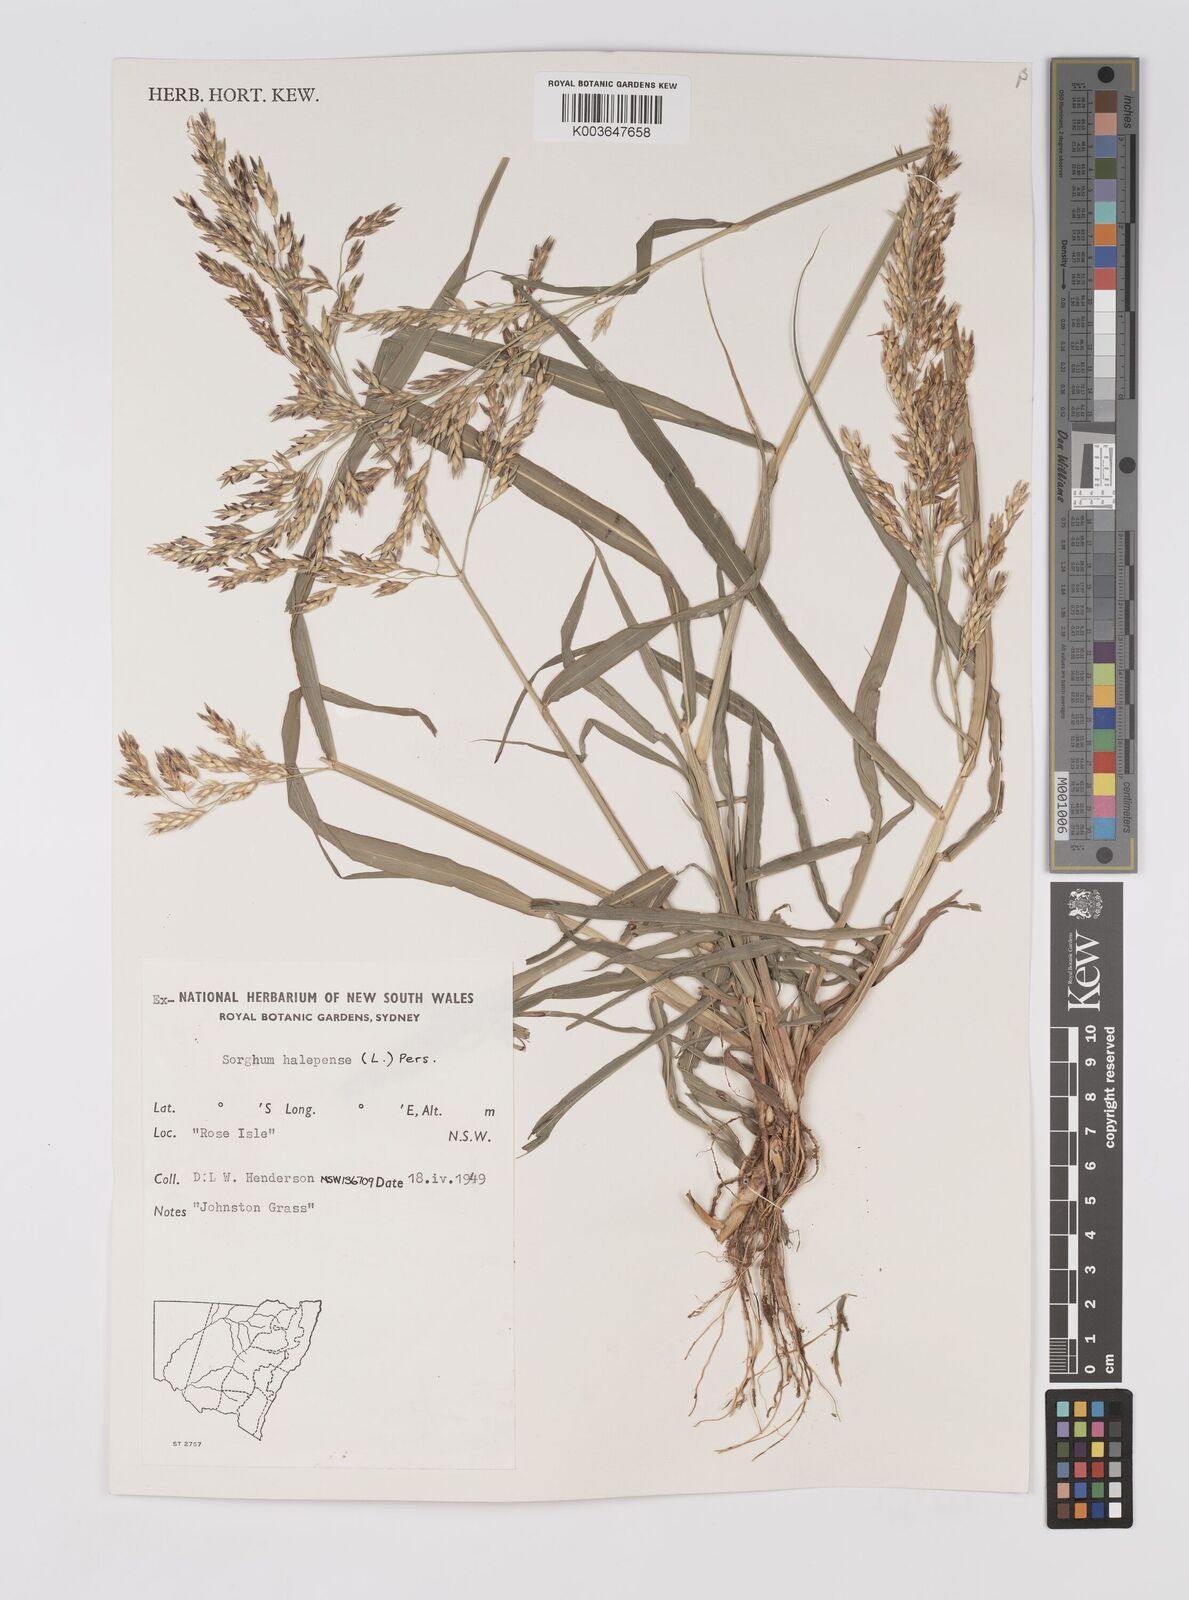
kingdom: Plantae
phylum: Tracheophyta
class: Liliopsida
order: Poales
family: Poaceae
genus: Sorghum
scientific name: Sorghum halepense
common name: Johnson-grass
